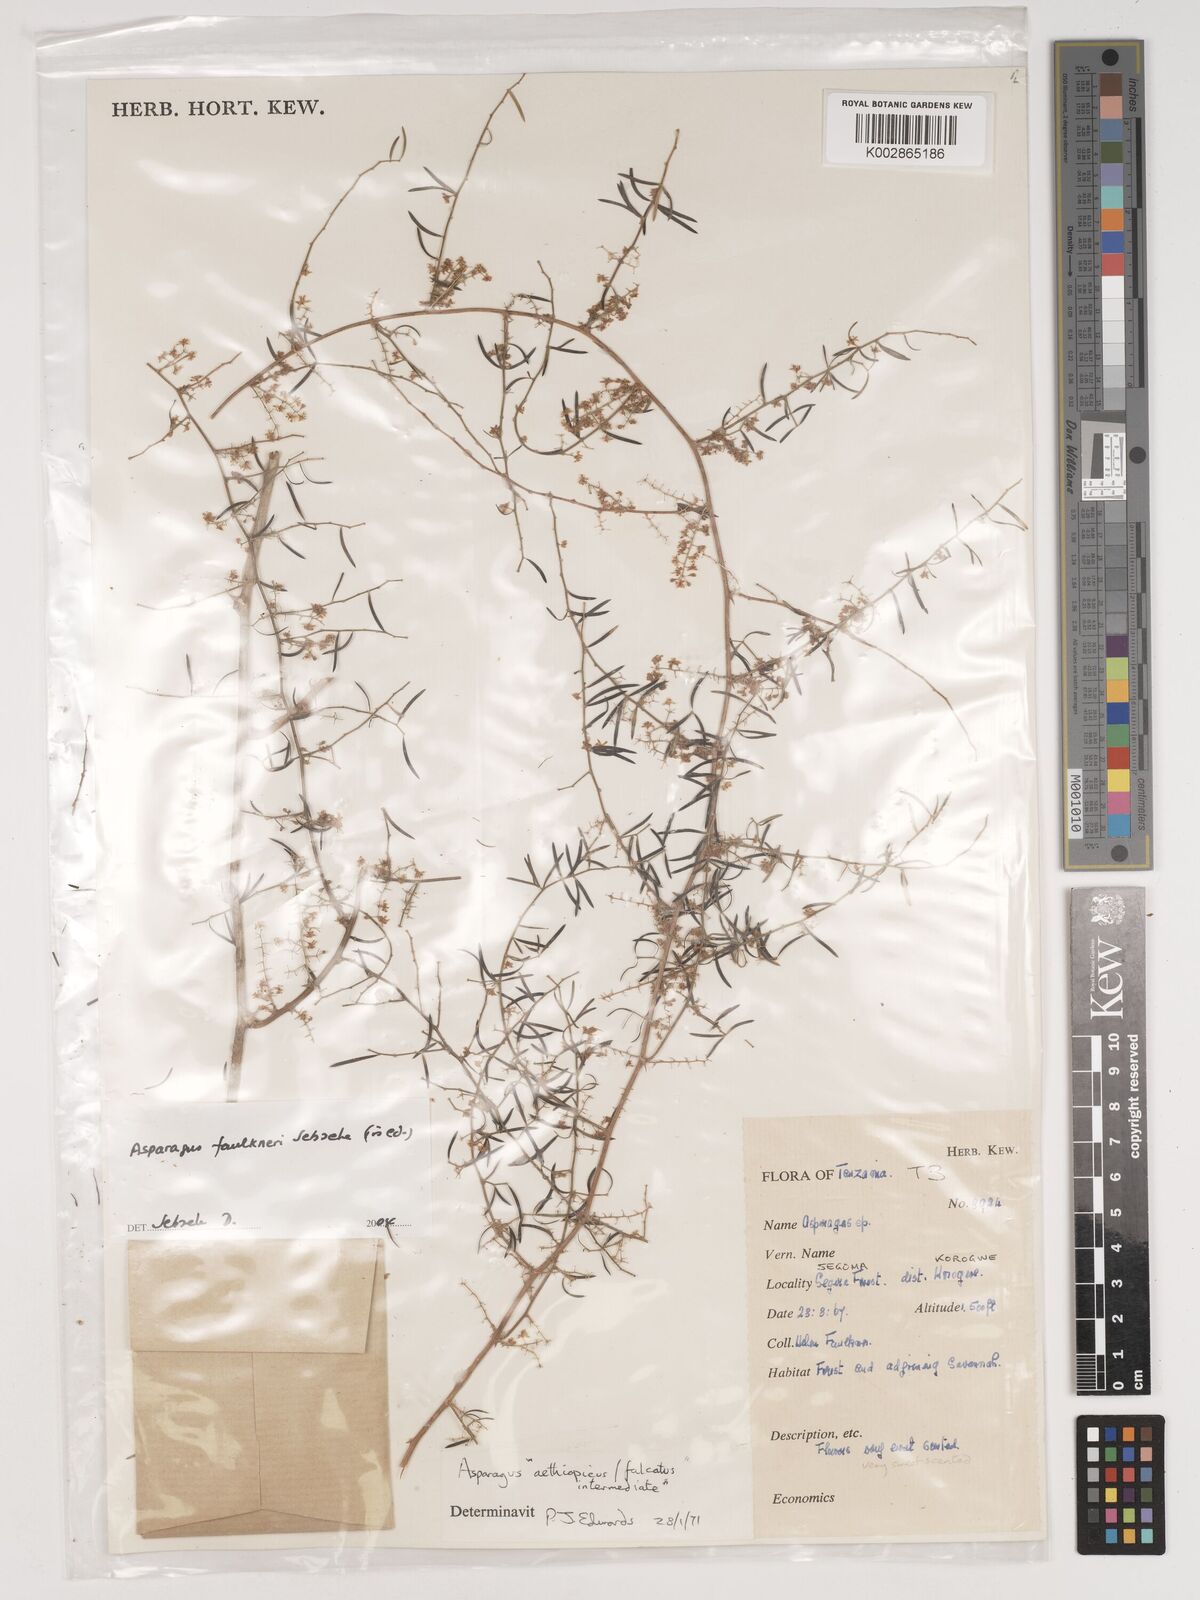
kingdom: Plantae
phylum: Tracheophyta
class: Liliopsida
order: Asparagales
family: Asparagaceae
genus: Asparagus
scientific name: Asparagus faulkneri
